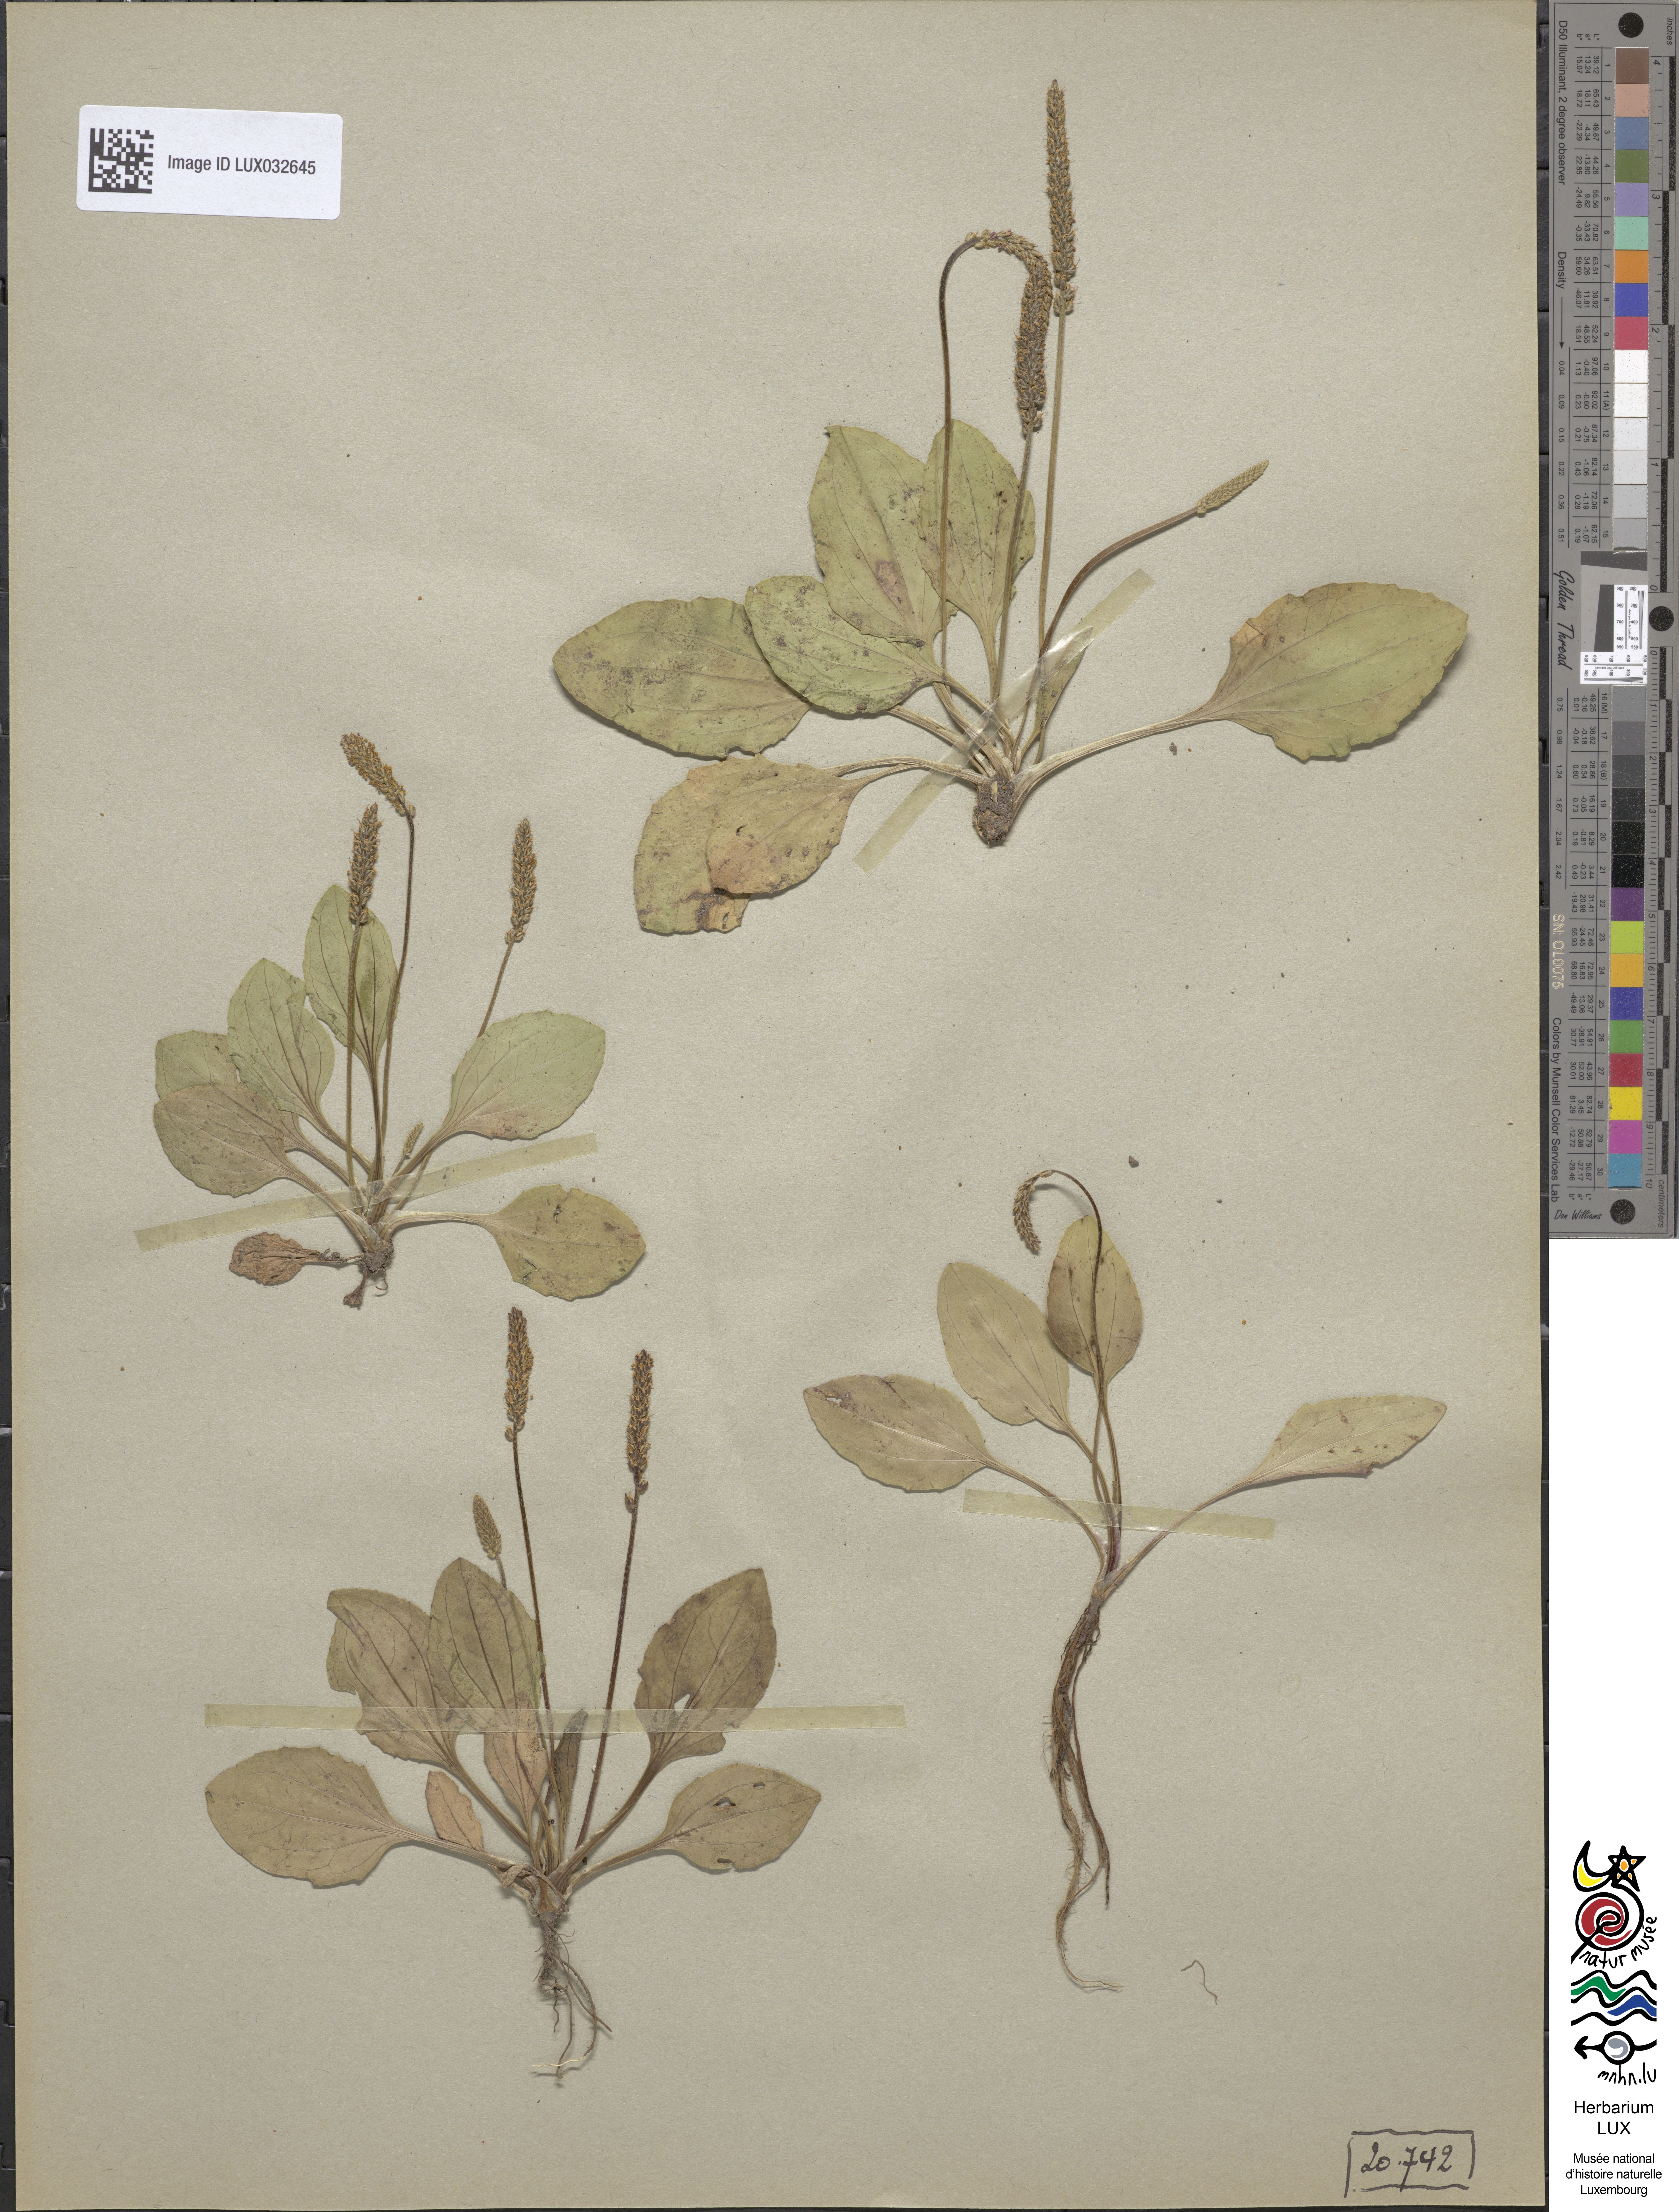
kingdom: Plantae
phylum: Tracheophyta
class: Magnoliopsida
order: Lamiales
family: Plantaginaceae
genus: Plantago
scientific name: Plantago major
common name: Common plantain
